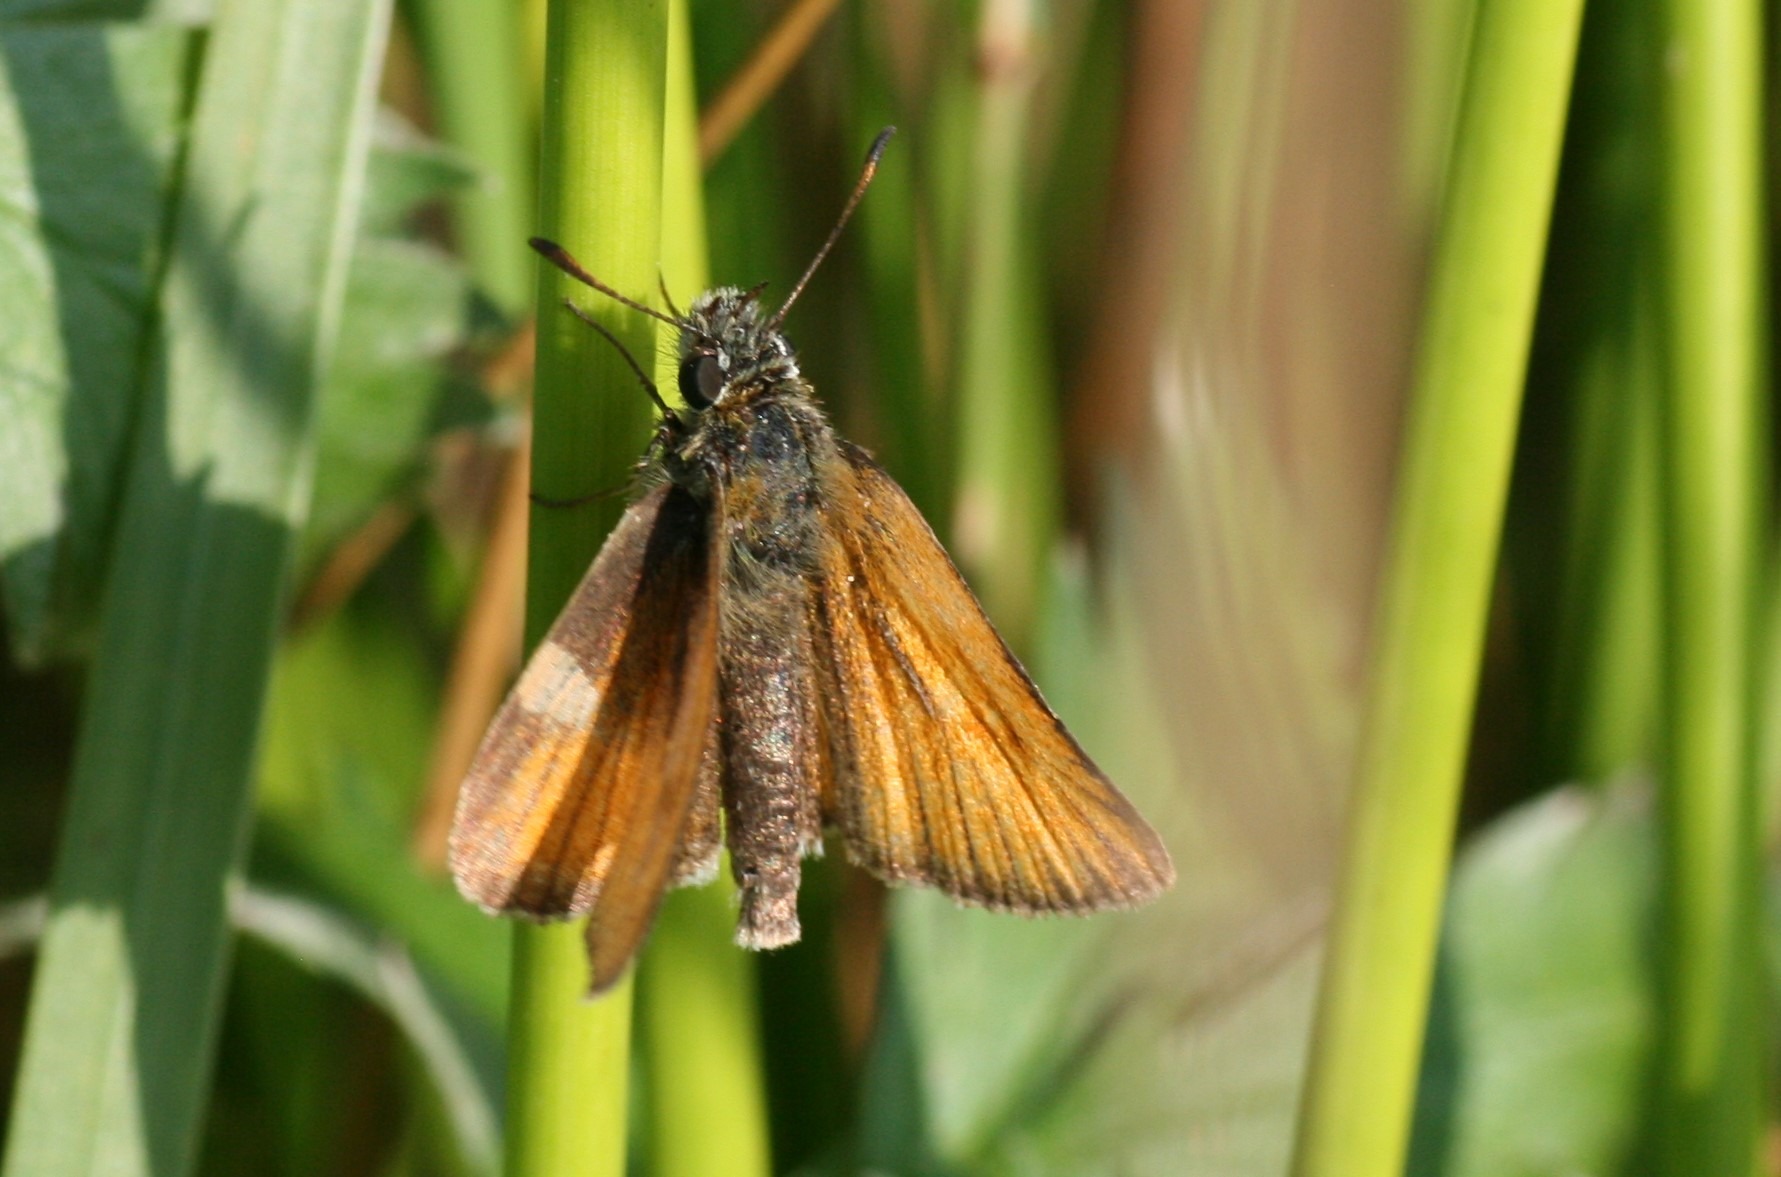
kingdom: Animalia
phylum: Arthropoda
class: Insecta
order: Lepidoptera
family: Hesperiidae
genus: Thymelicus
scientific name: Thymelicus lineola
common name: Stregbredpande
